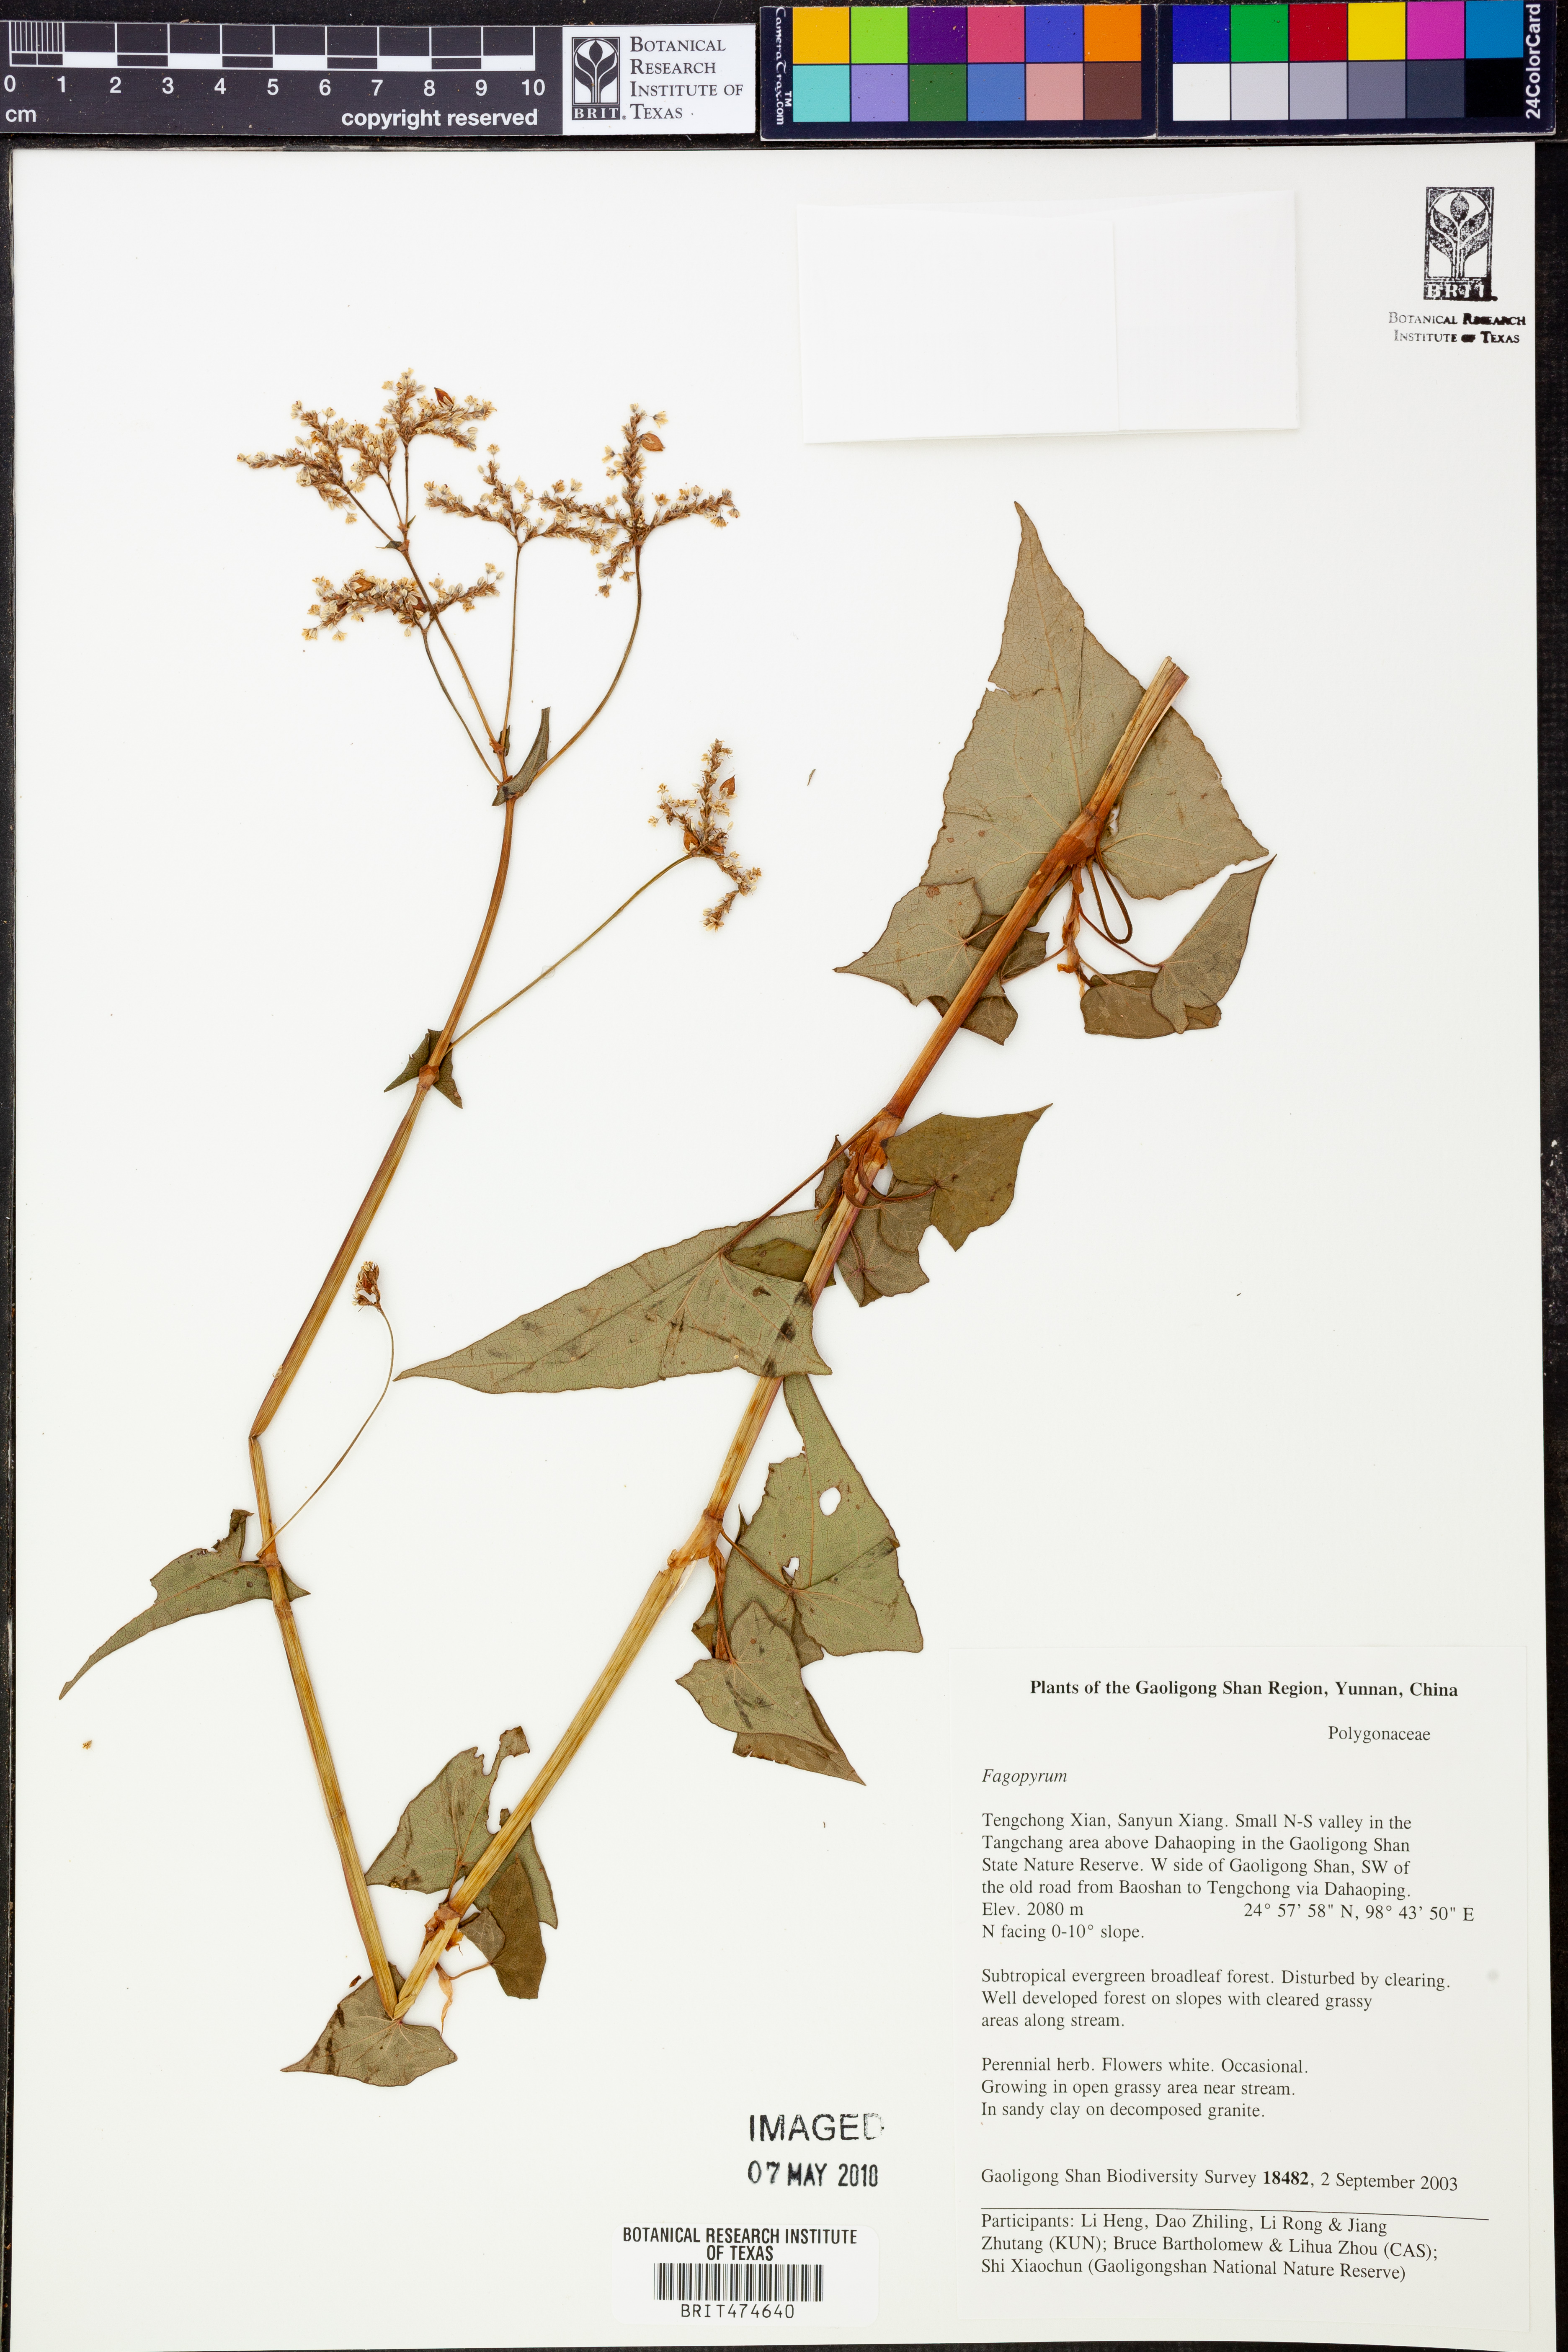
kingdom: Plantae
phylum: Tracheophyta
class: Magnoliopsida
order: Caryophyllales
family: Polygonaceae
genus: Fagopyrum
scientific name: Fagopyrum
